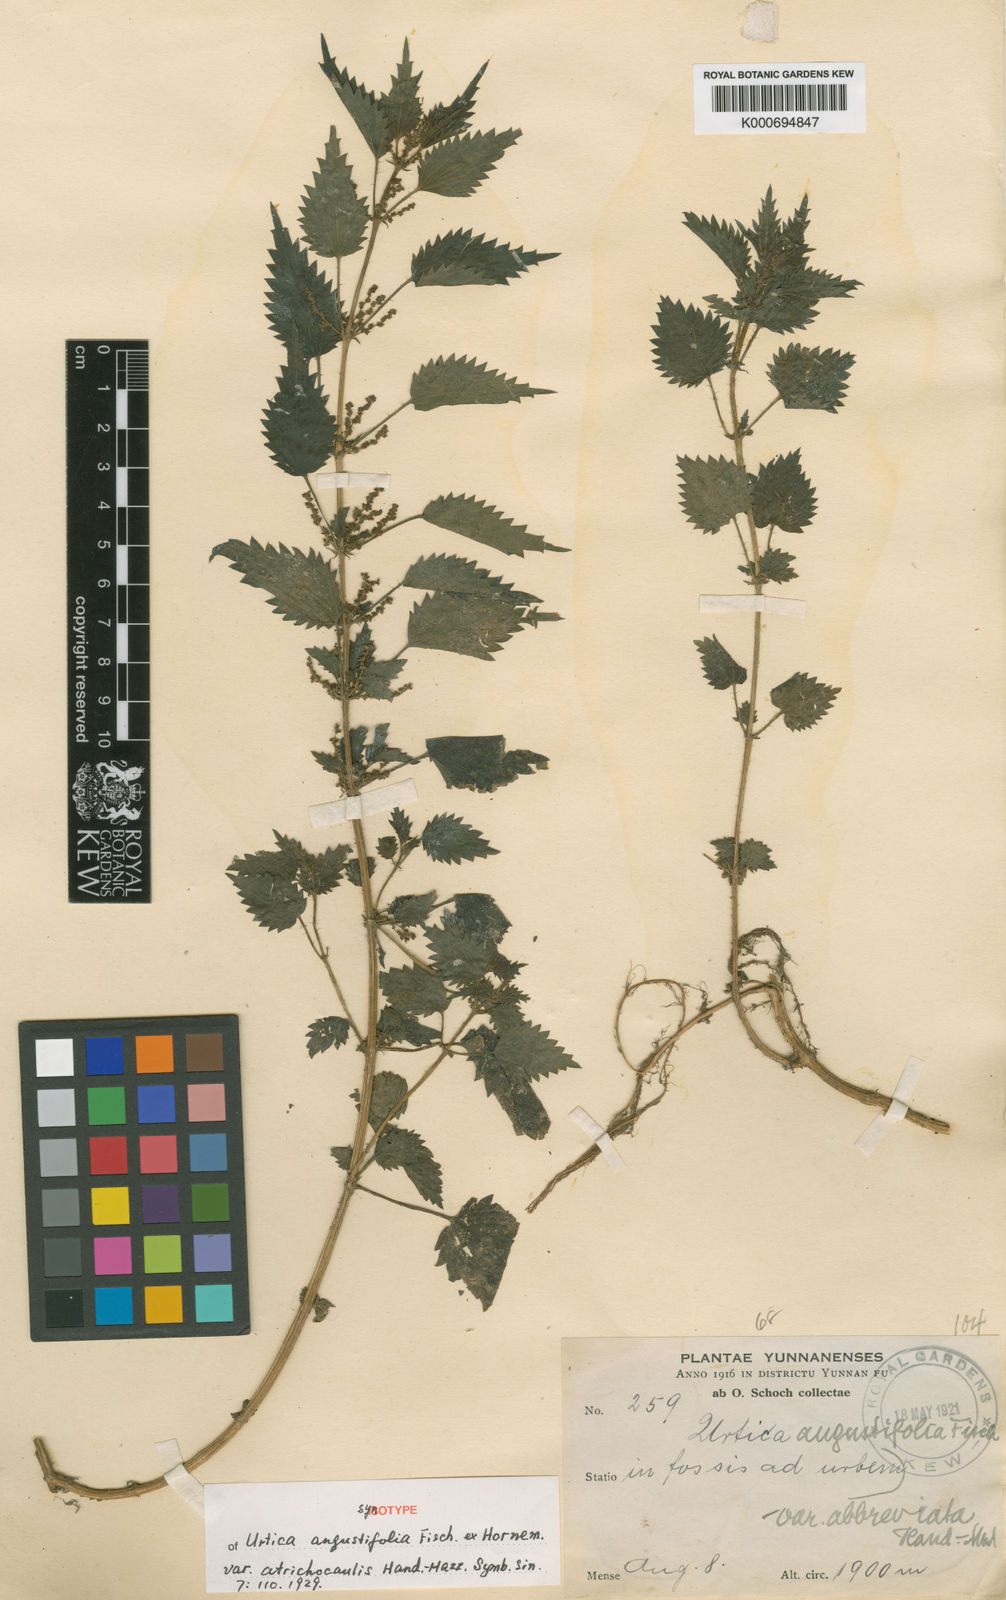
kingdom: Plantae
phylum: Tracheophyta
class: Magnoliopsida
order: Rosales
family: Urticaceae
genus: Urtica
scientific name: Urtica dioica
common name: Common nettle
